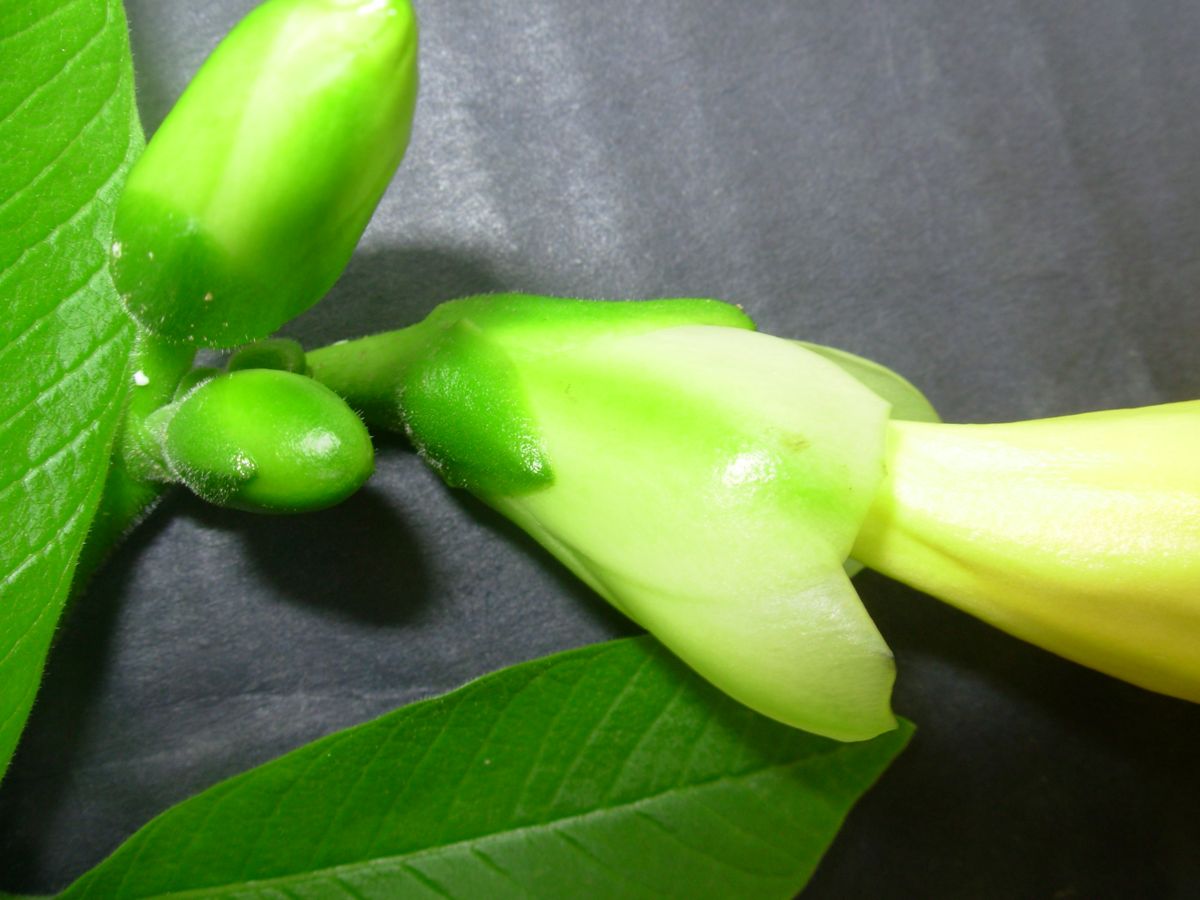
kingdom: Plantae
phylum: Tracheophyta
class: Magnoliopsida
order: Gentianales
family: Apocynaceae
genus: Tabernaemontana
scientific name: Tabernaemontana glabra
